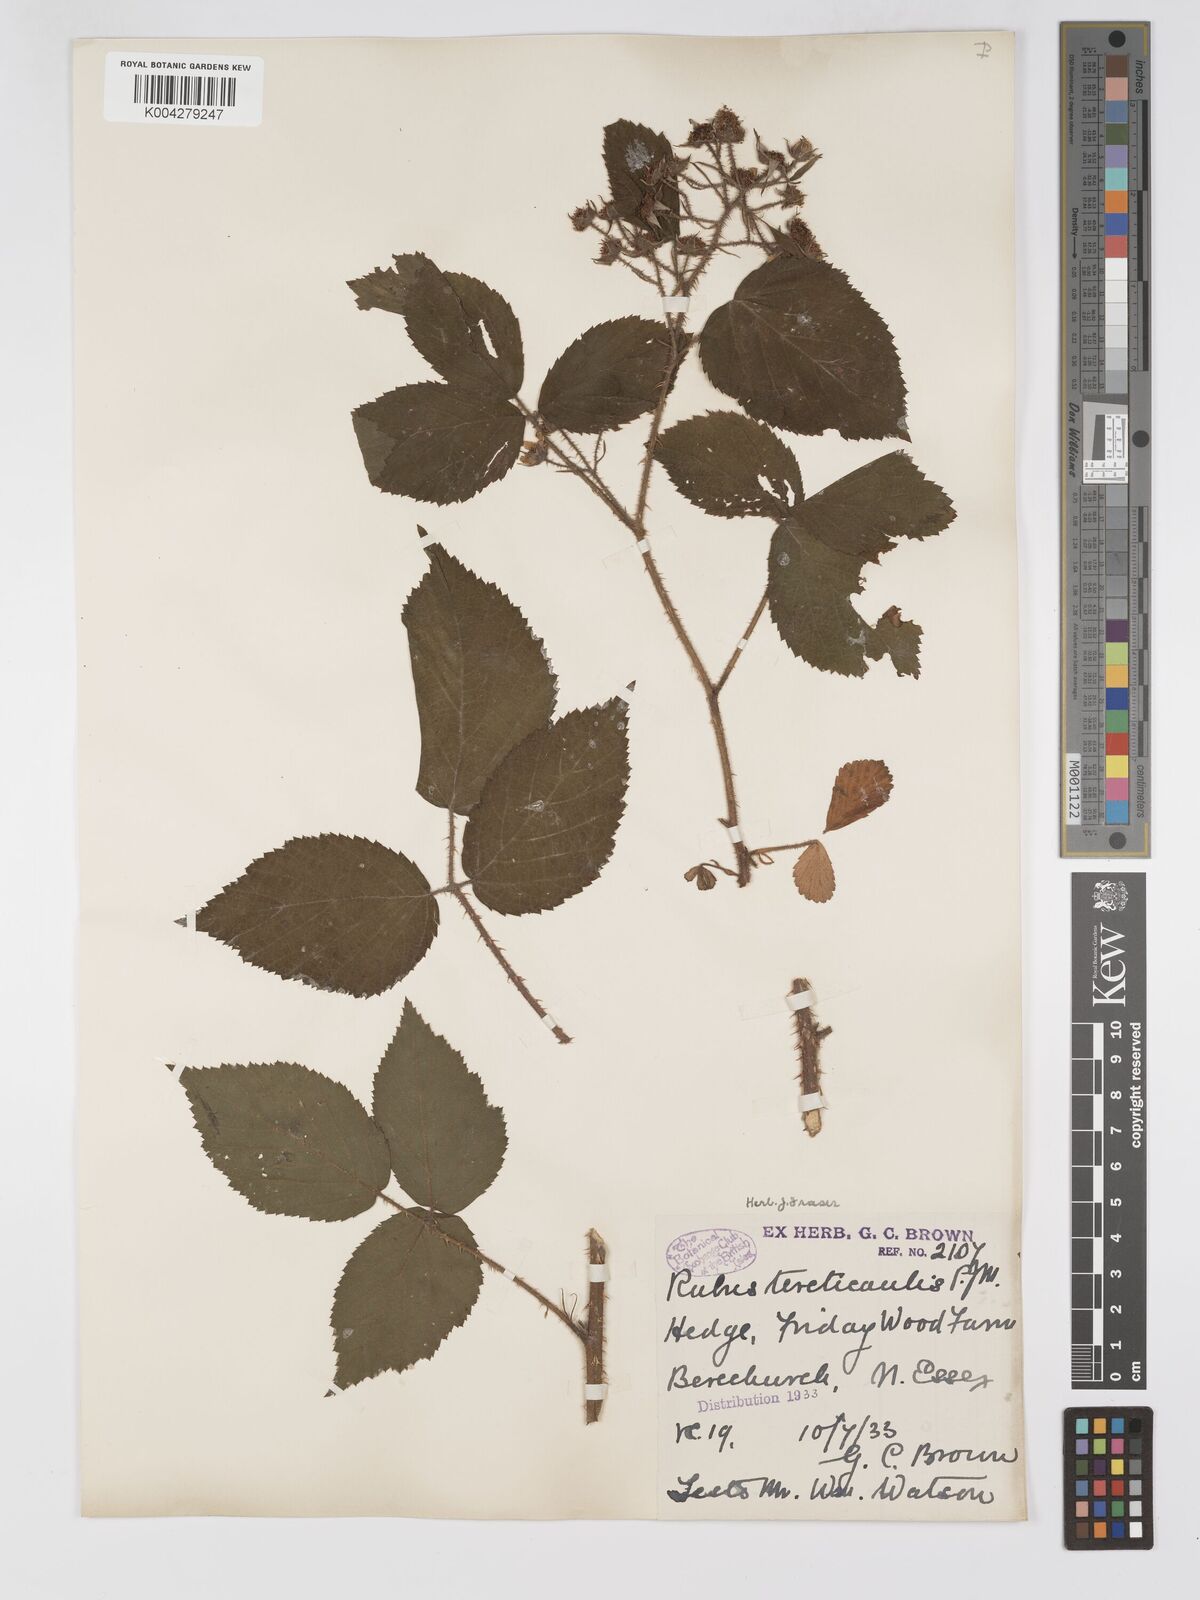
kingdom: Plantae
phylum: Tracheophyta
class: Magnoliopsida
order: Rosales
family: Rosaceae
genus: Rubus
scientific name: Rubus iceniensis
